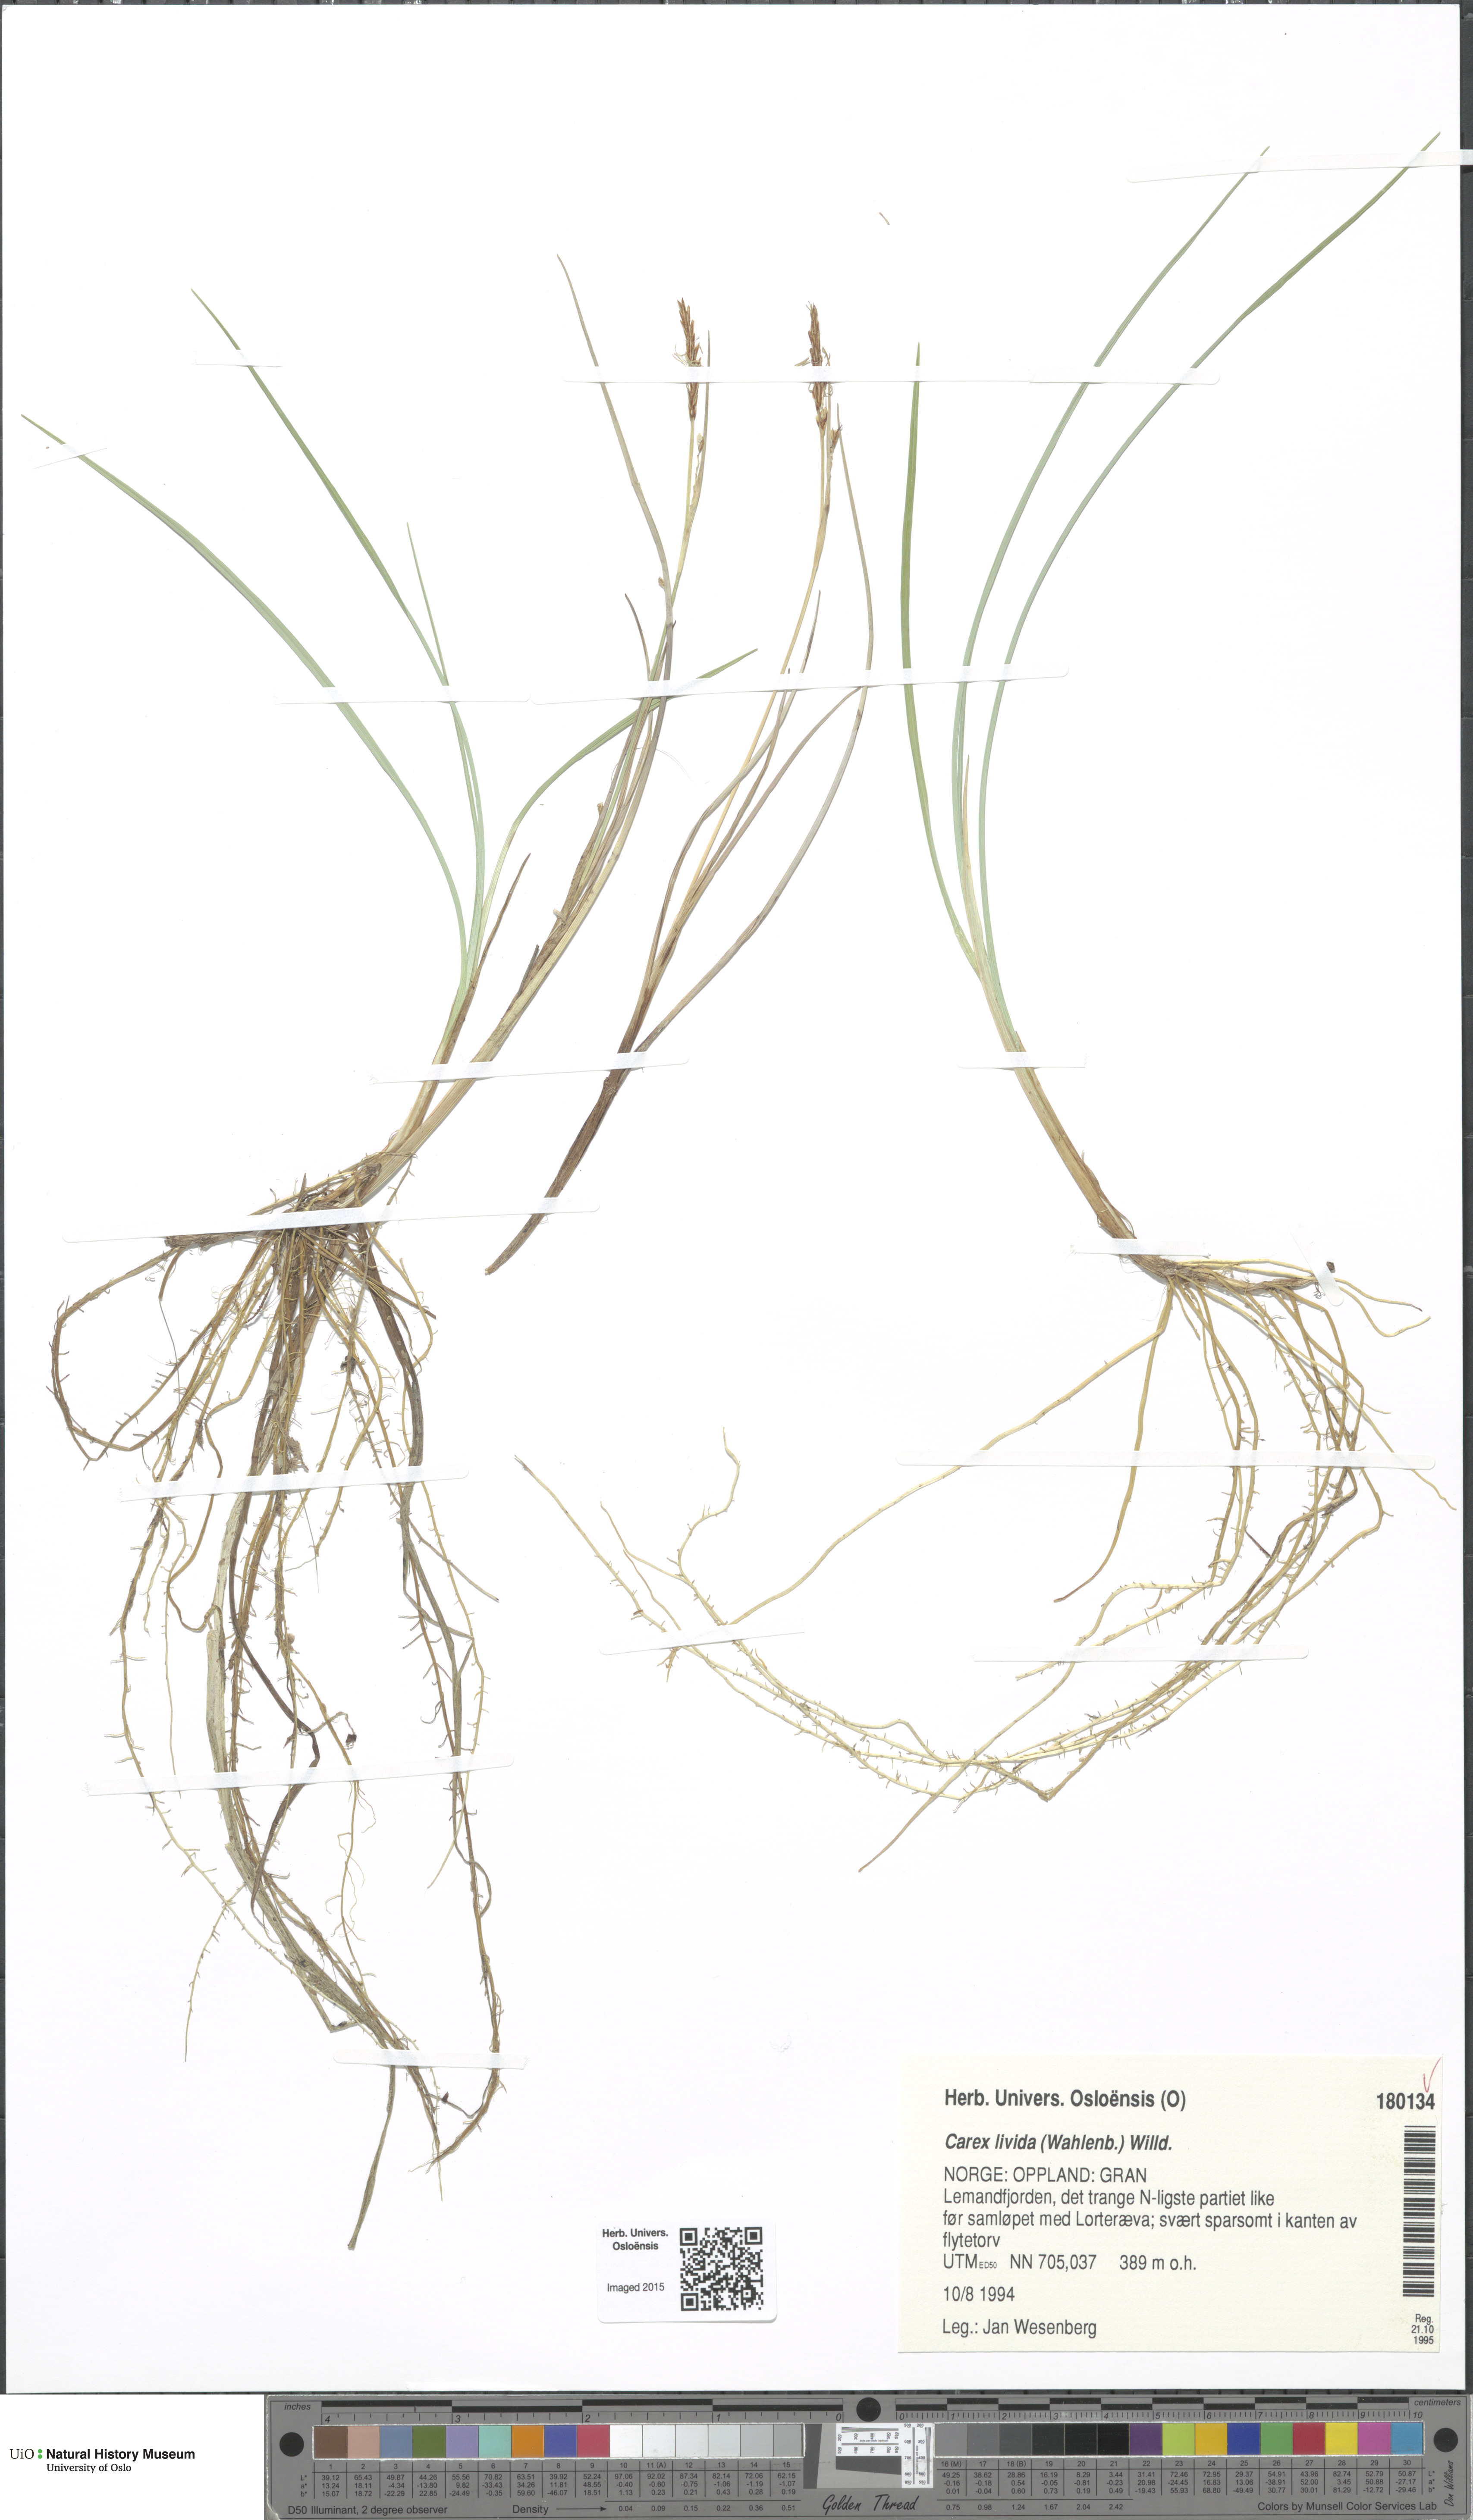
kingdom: Plantae
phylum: Tracheophyta
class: Liliopsida
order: Poales
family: Cyperaceae
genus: Carex
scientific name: Carex livida
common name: Livid sedge
